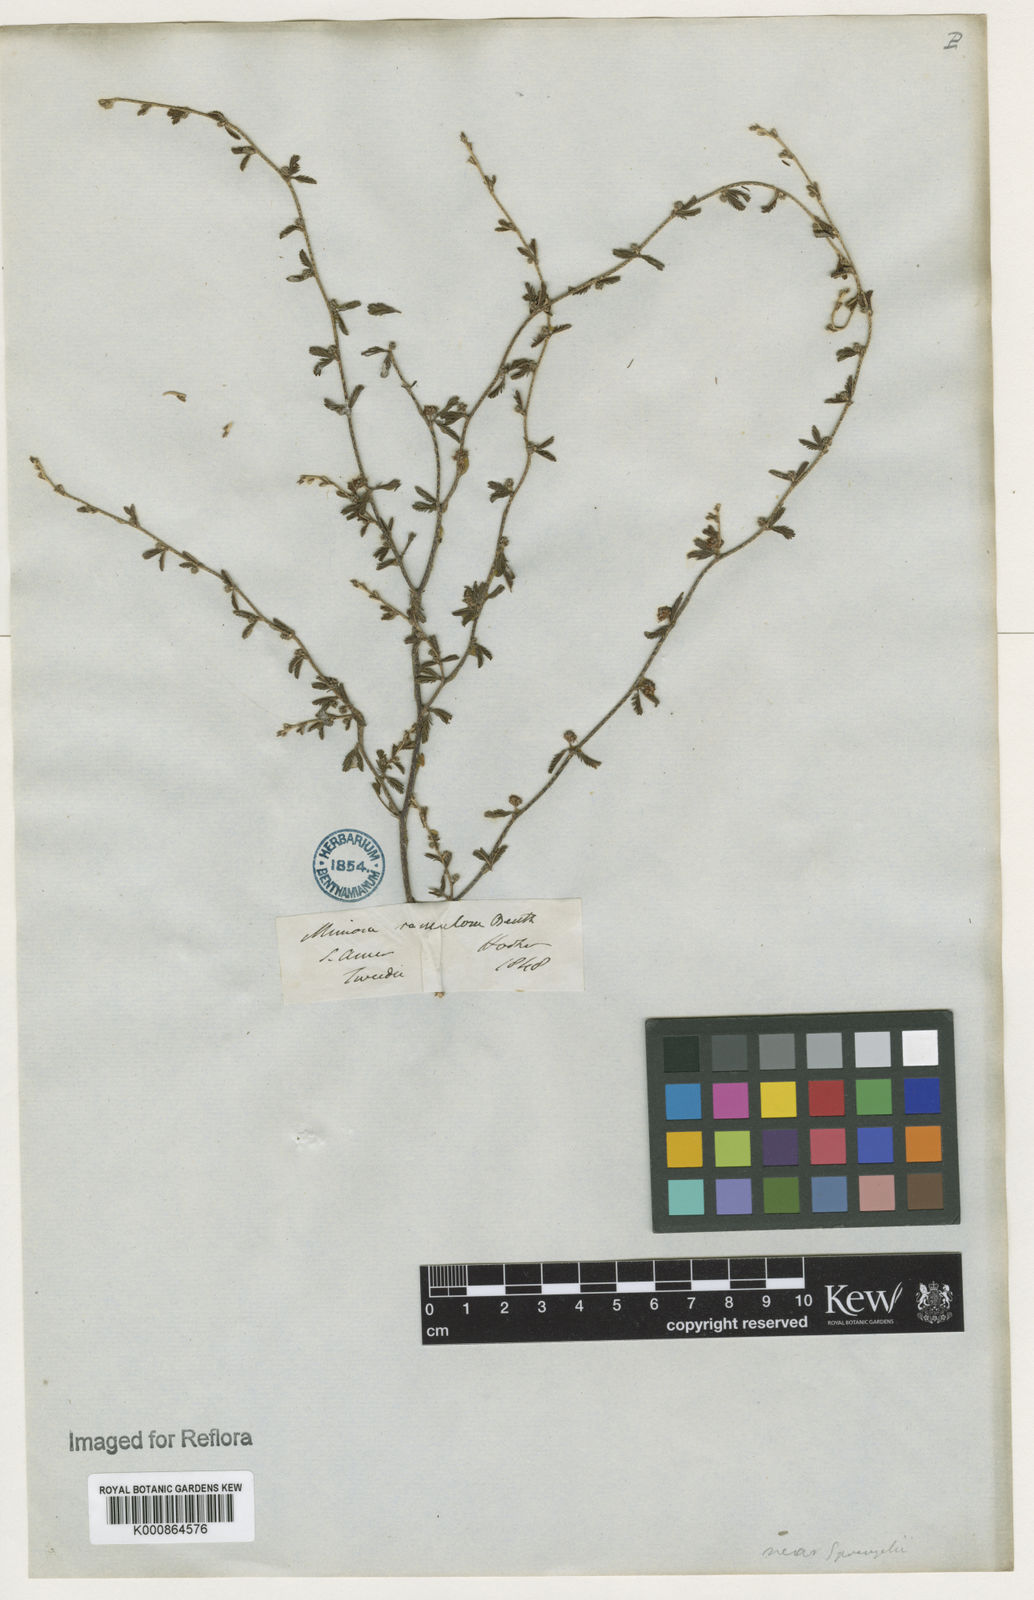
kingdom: Plantae
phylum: Tracheophyta
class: Magnoliopsida
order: Fabales
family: Fabaceae
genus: Mimosa
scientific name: Mimosa ramulosa
